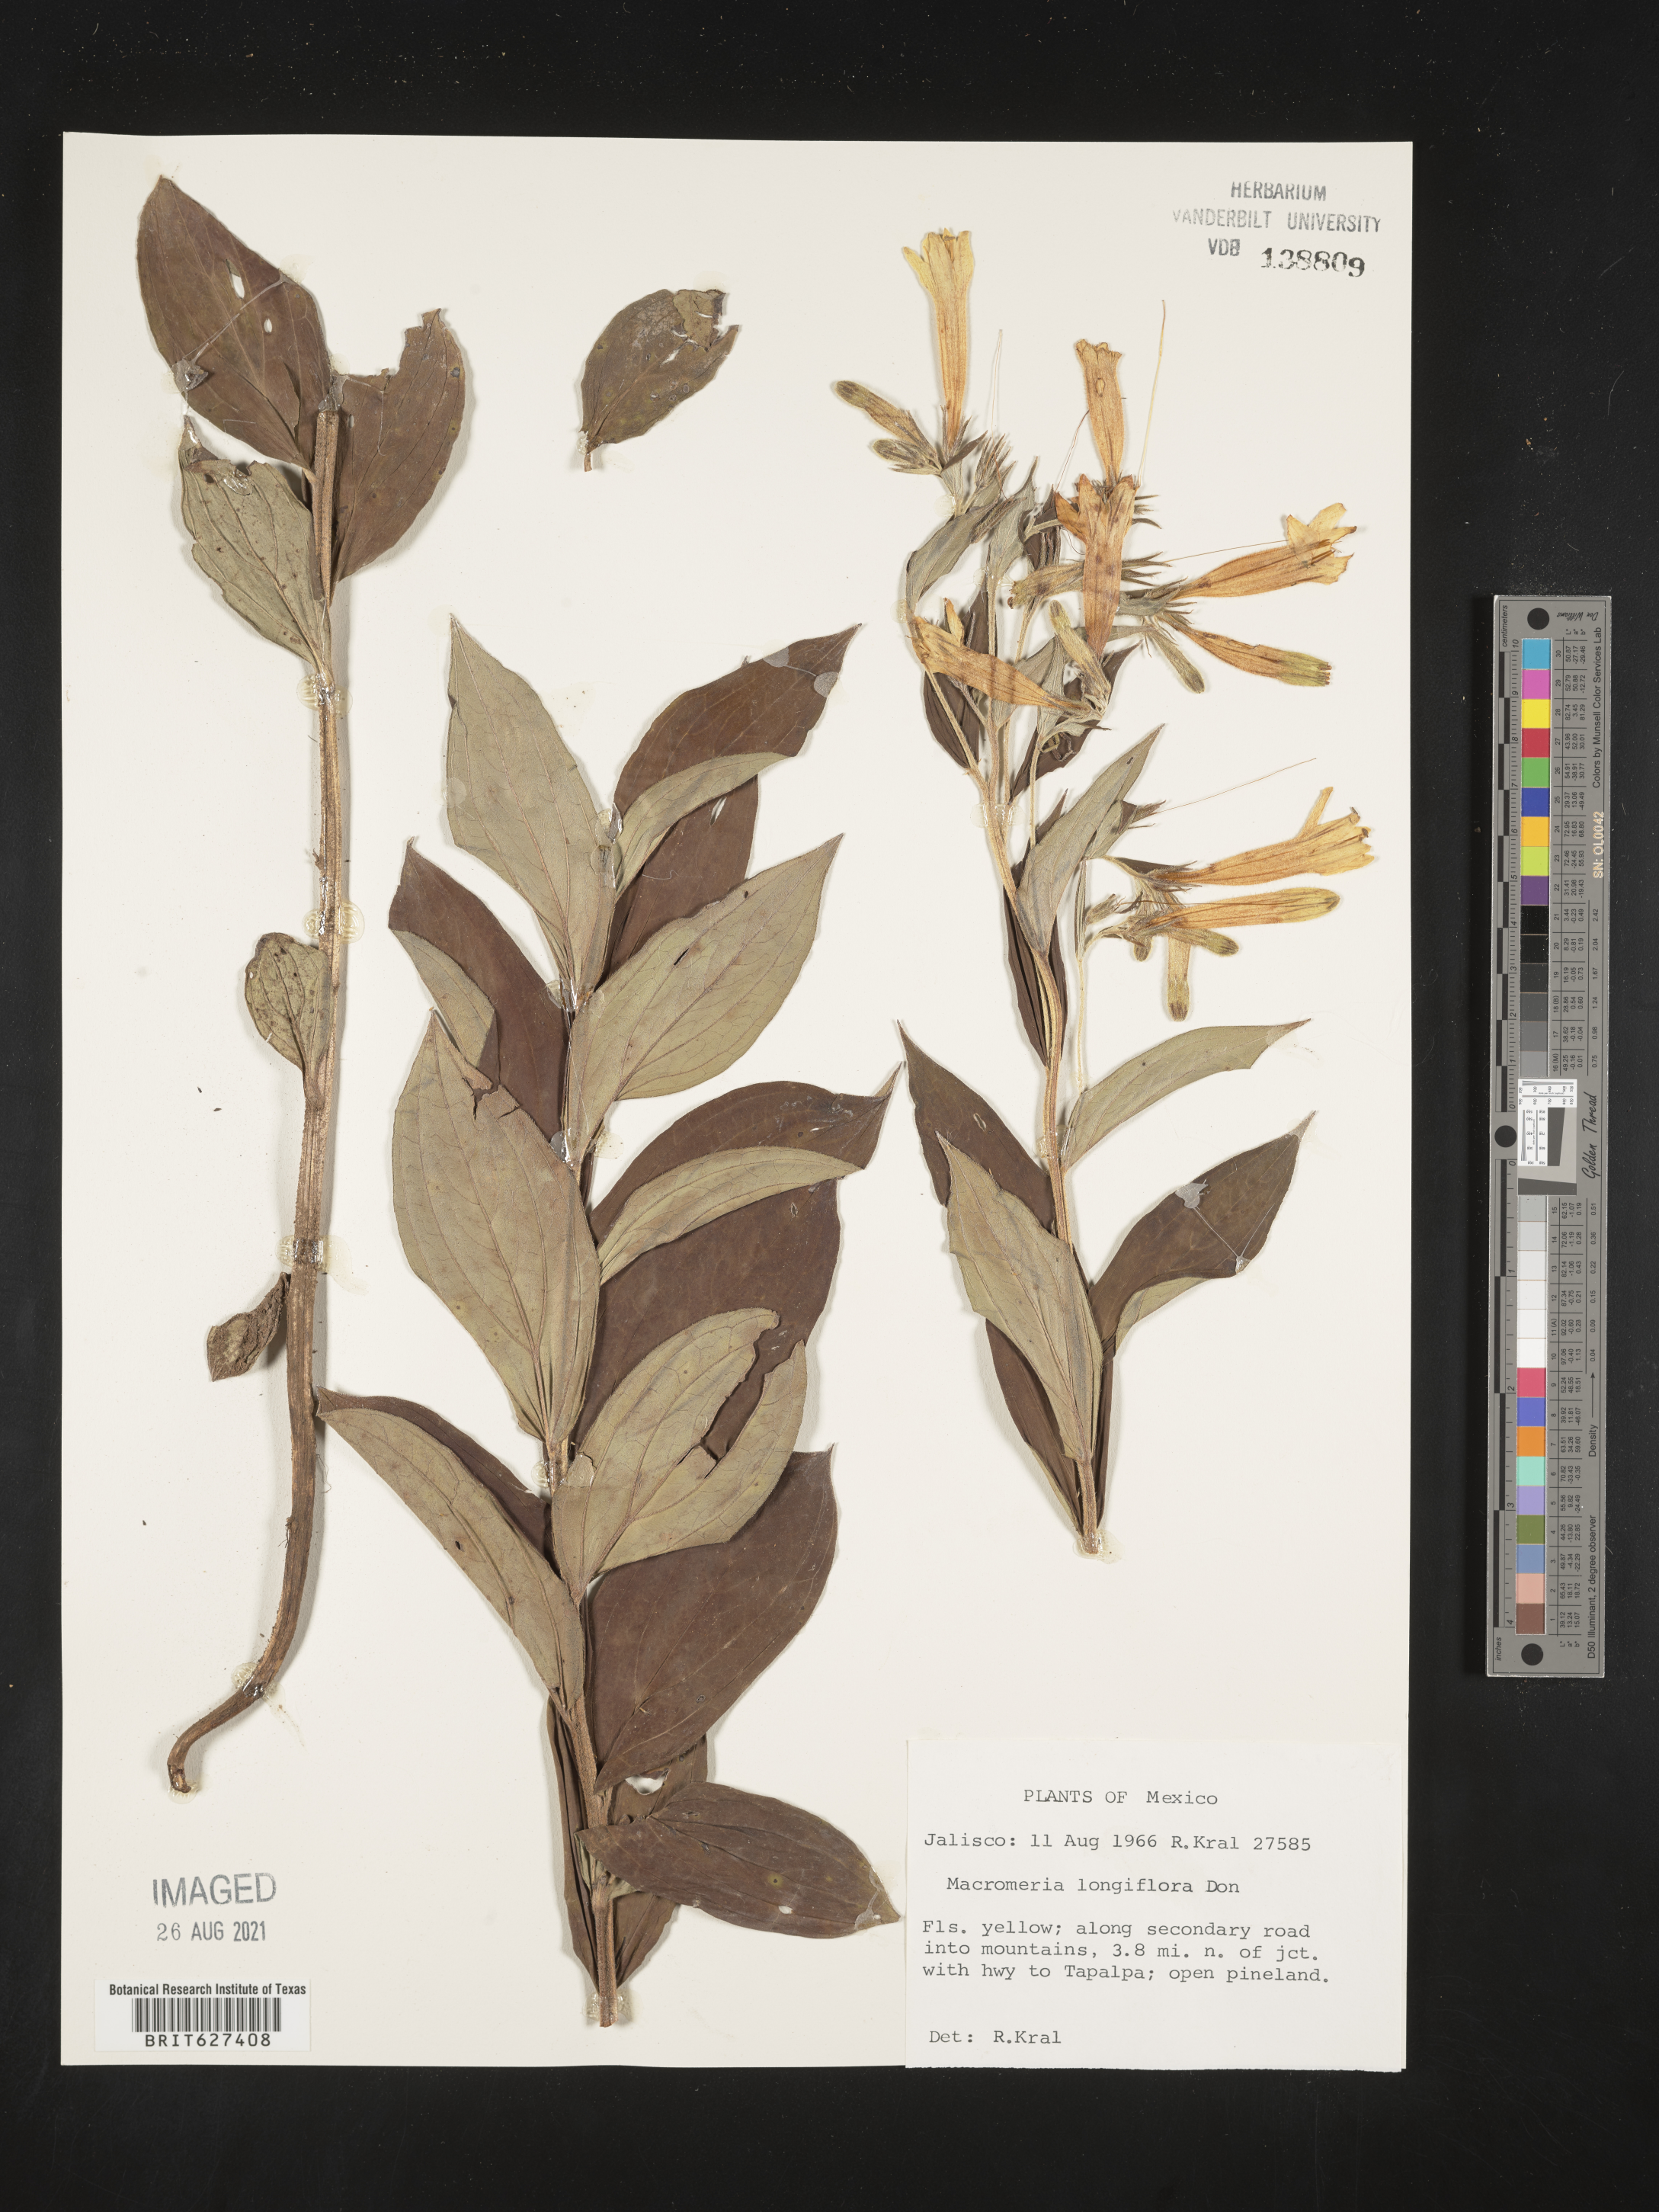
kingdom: Animalia
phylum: Arthropoda
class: Insecta
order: Hymenoptera
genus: Macromeria
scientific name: Macromeria
